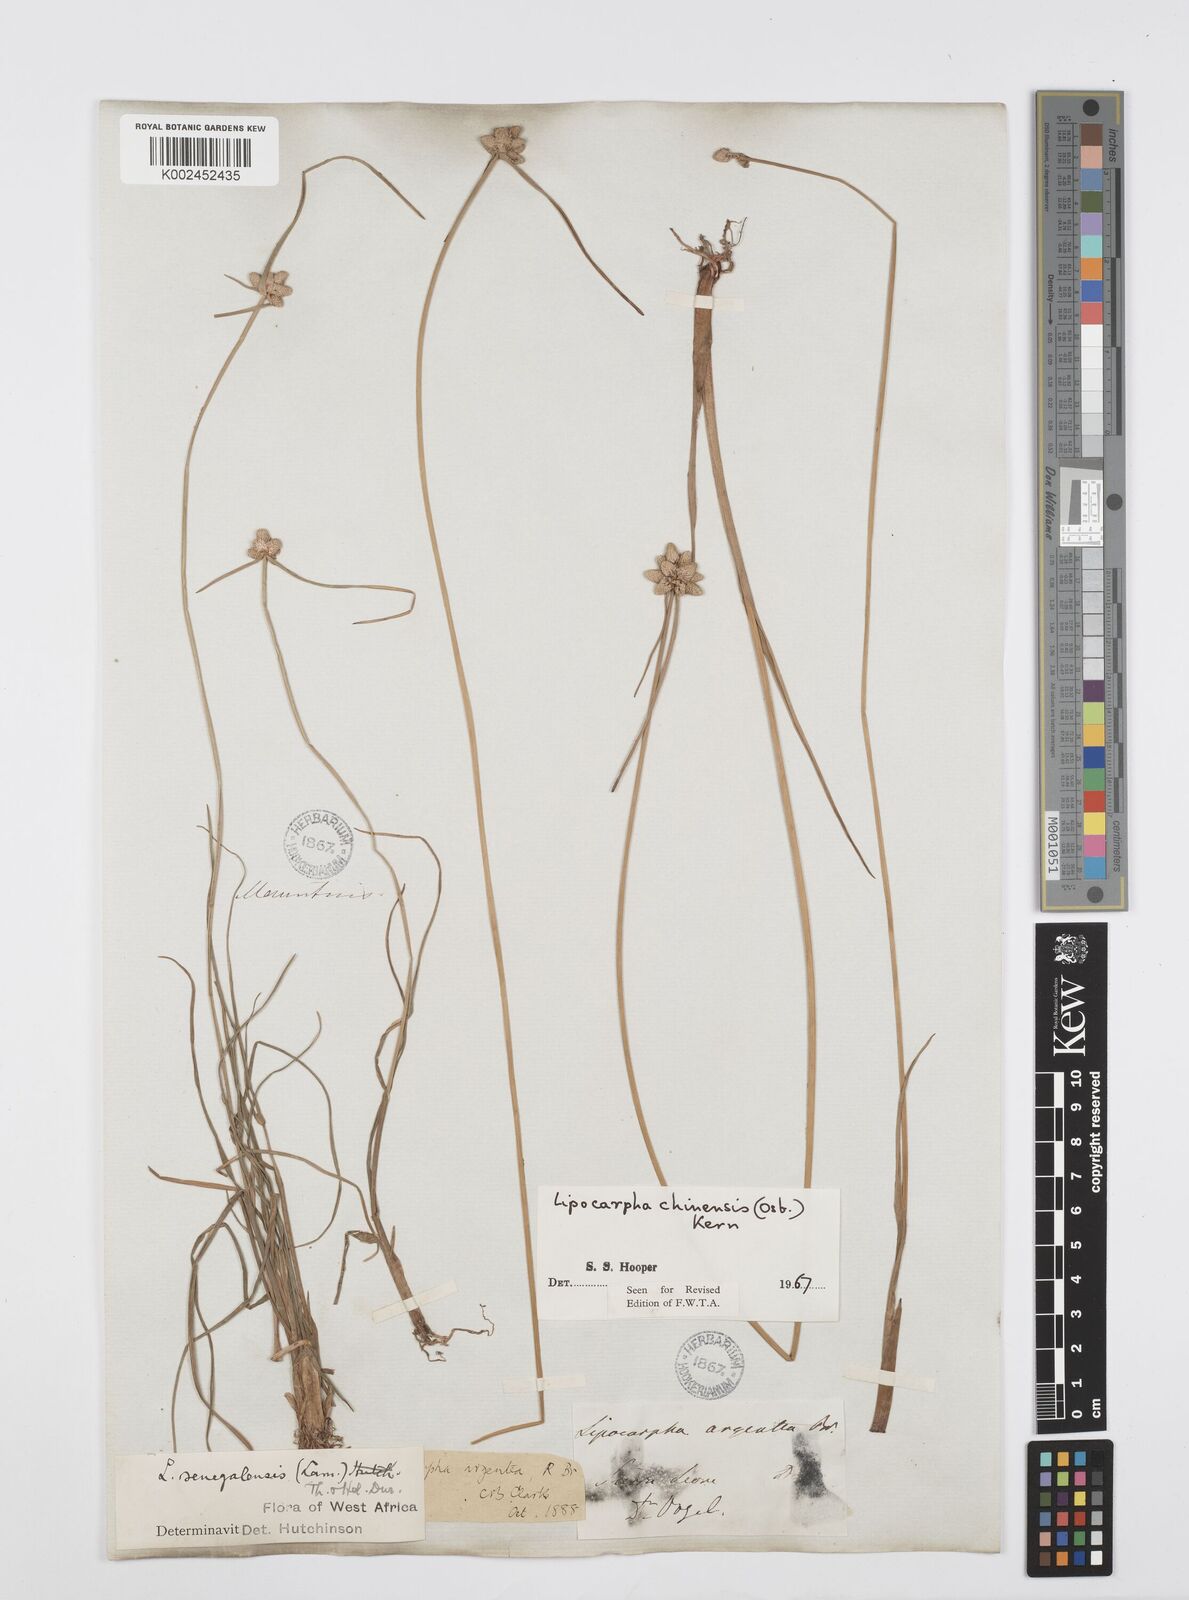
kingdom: Plantae
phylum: Tracheophyta
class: Liliopsida
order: Poales
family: Cyperaceae
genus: Cyperus
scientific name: Cyperus albescens
